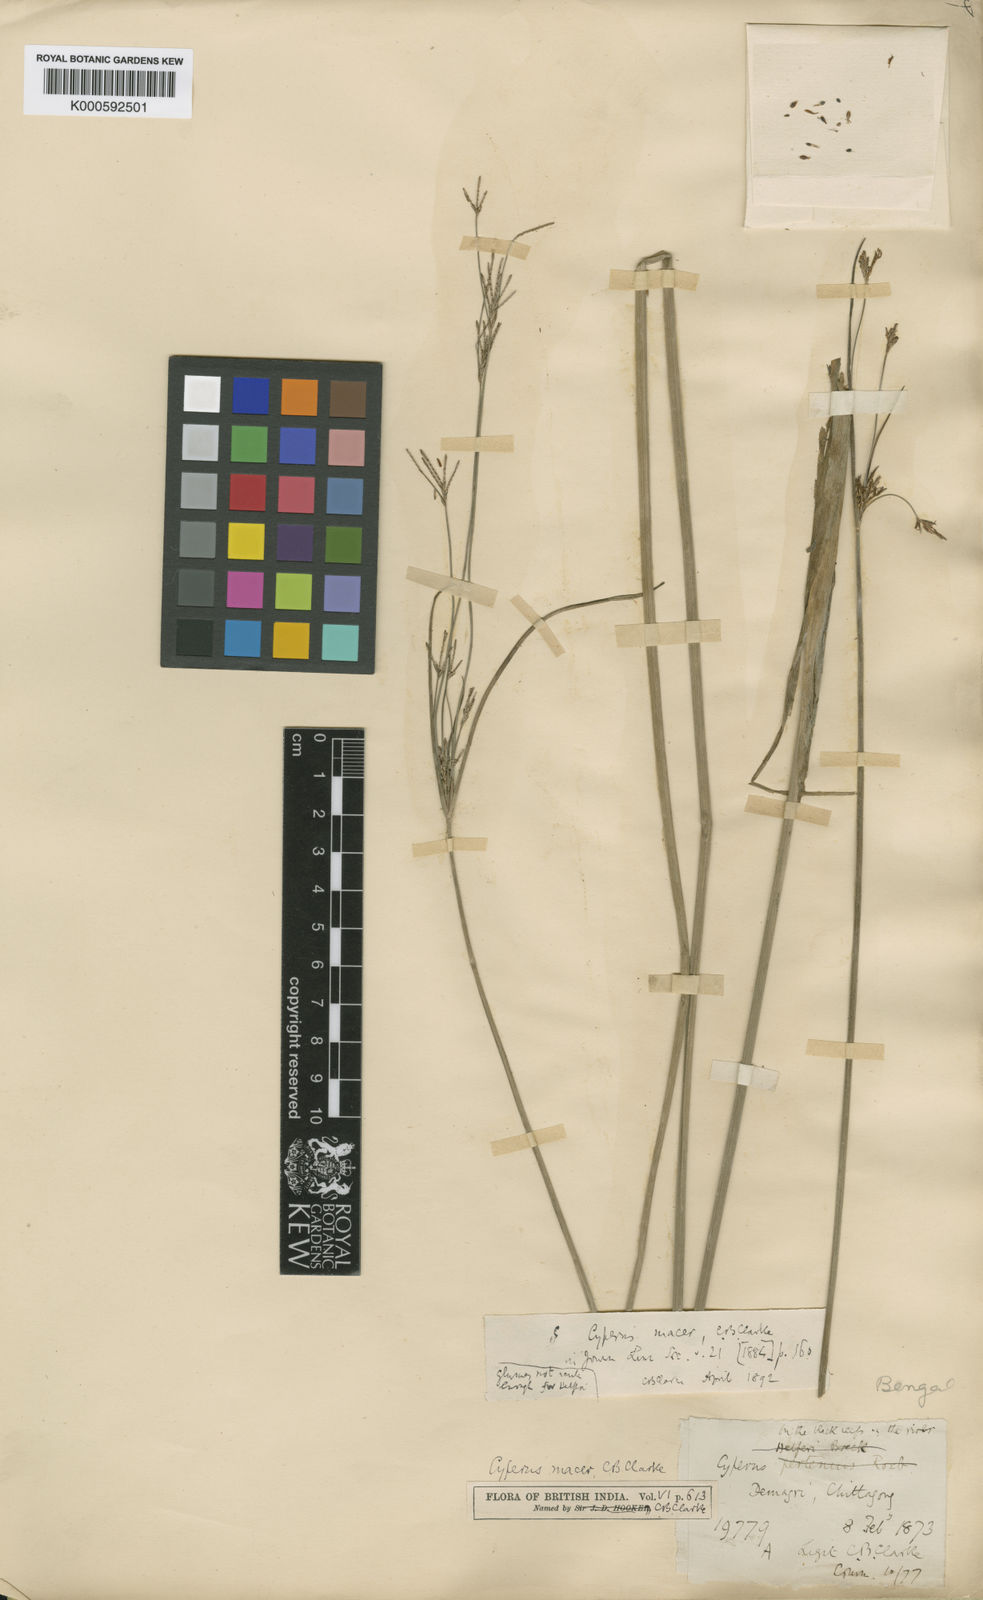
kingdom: Plantae
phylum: Tracheophyta
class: Liliopsida
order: Poales
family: Cyperaceae
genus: Cyperus
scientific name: Cyperus macer
